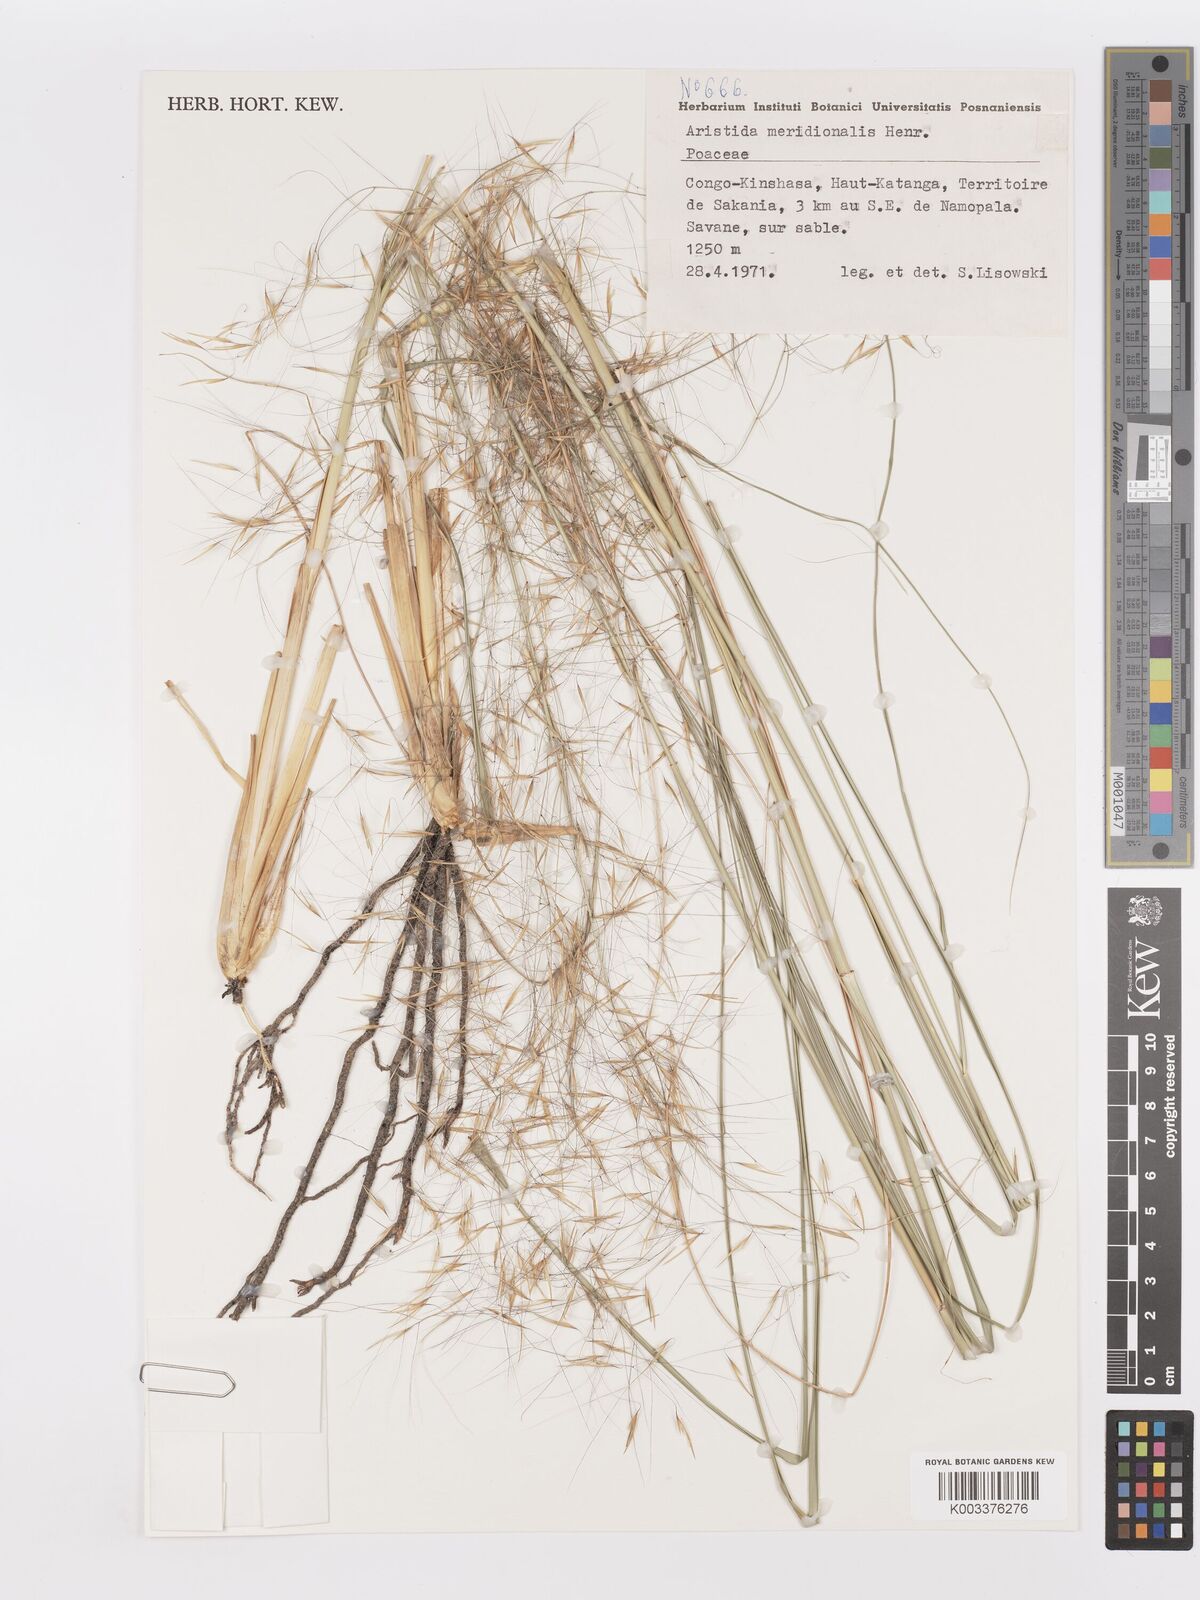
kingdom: Plantae
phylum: Tracheophyta
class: Liliopsida
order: Poales
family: Poaceae
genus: Aristida
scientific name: Aristida meridionalis
